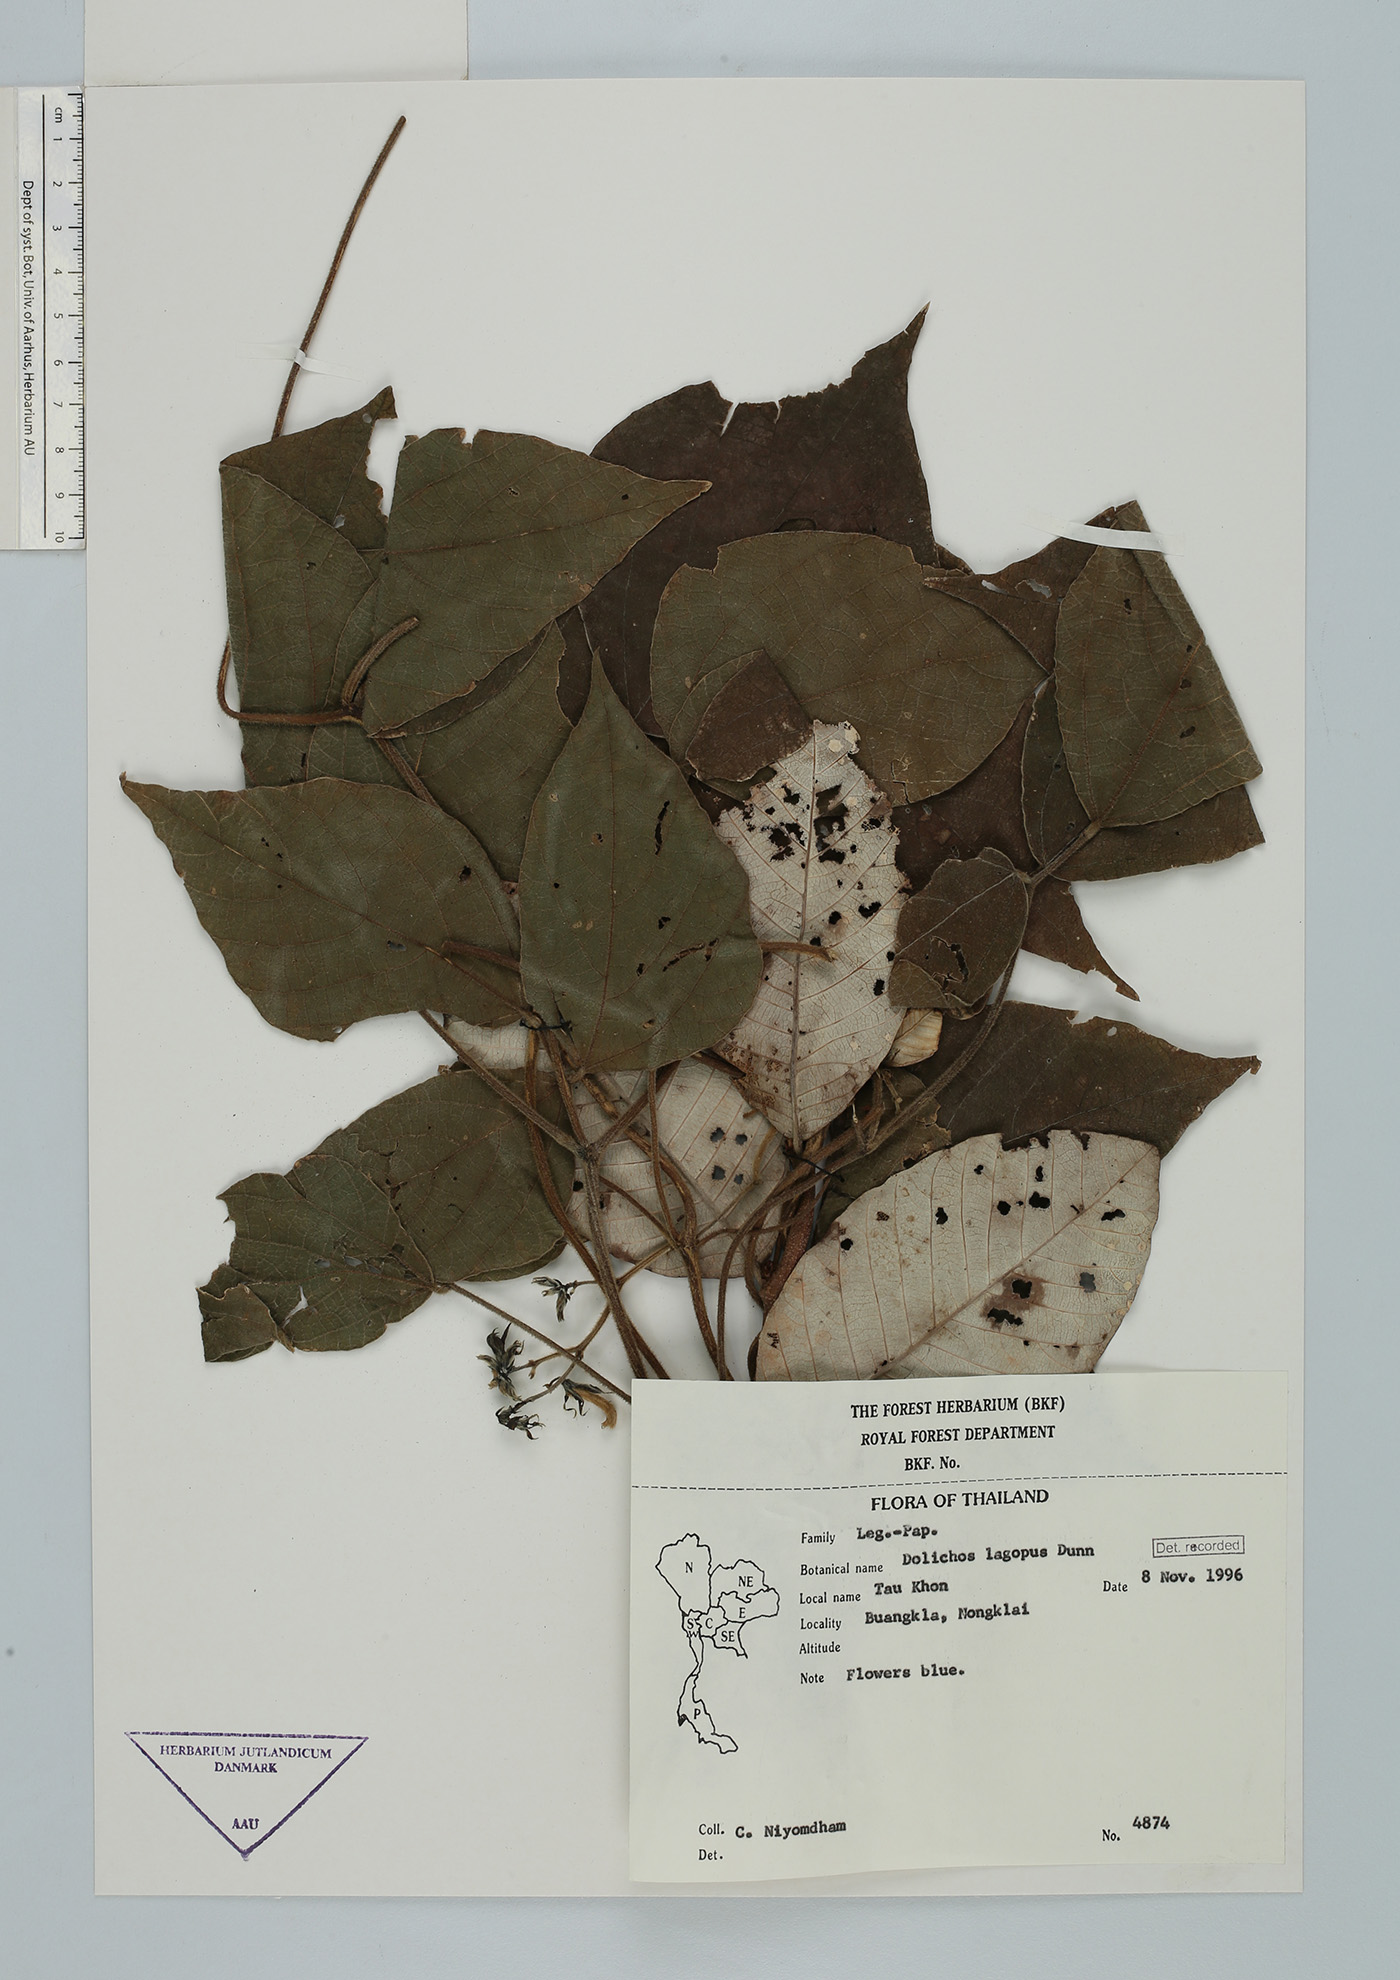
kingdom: Plantae
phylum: Tracheophyta
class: Magnoliopsida
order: Fabales
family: Fabaceae
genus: Sinodolichos
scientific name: Sinodolichos lagopus
